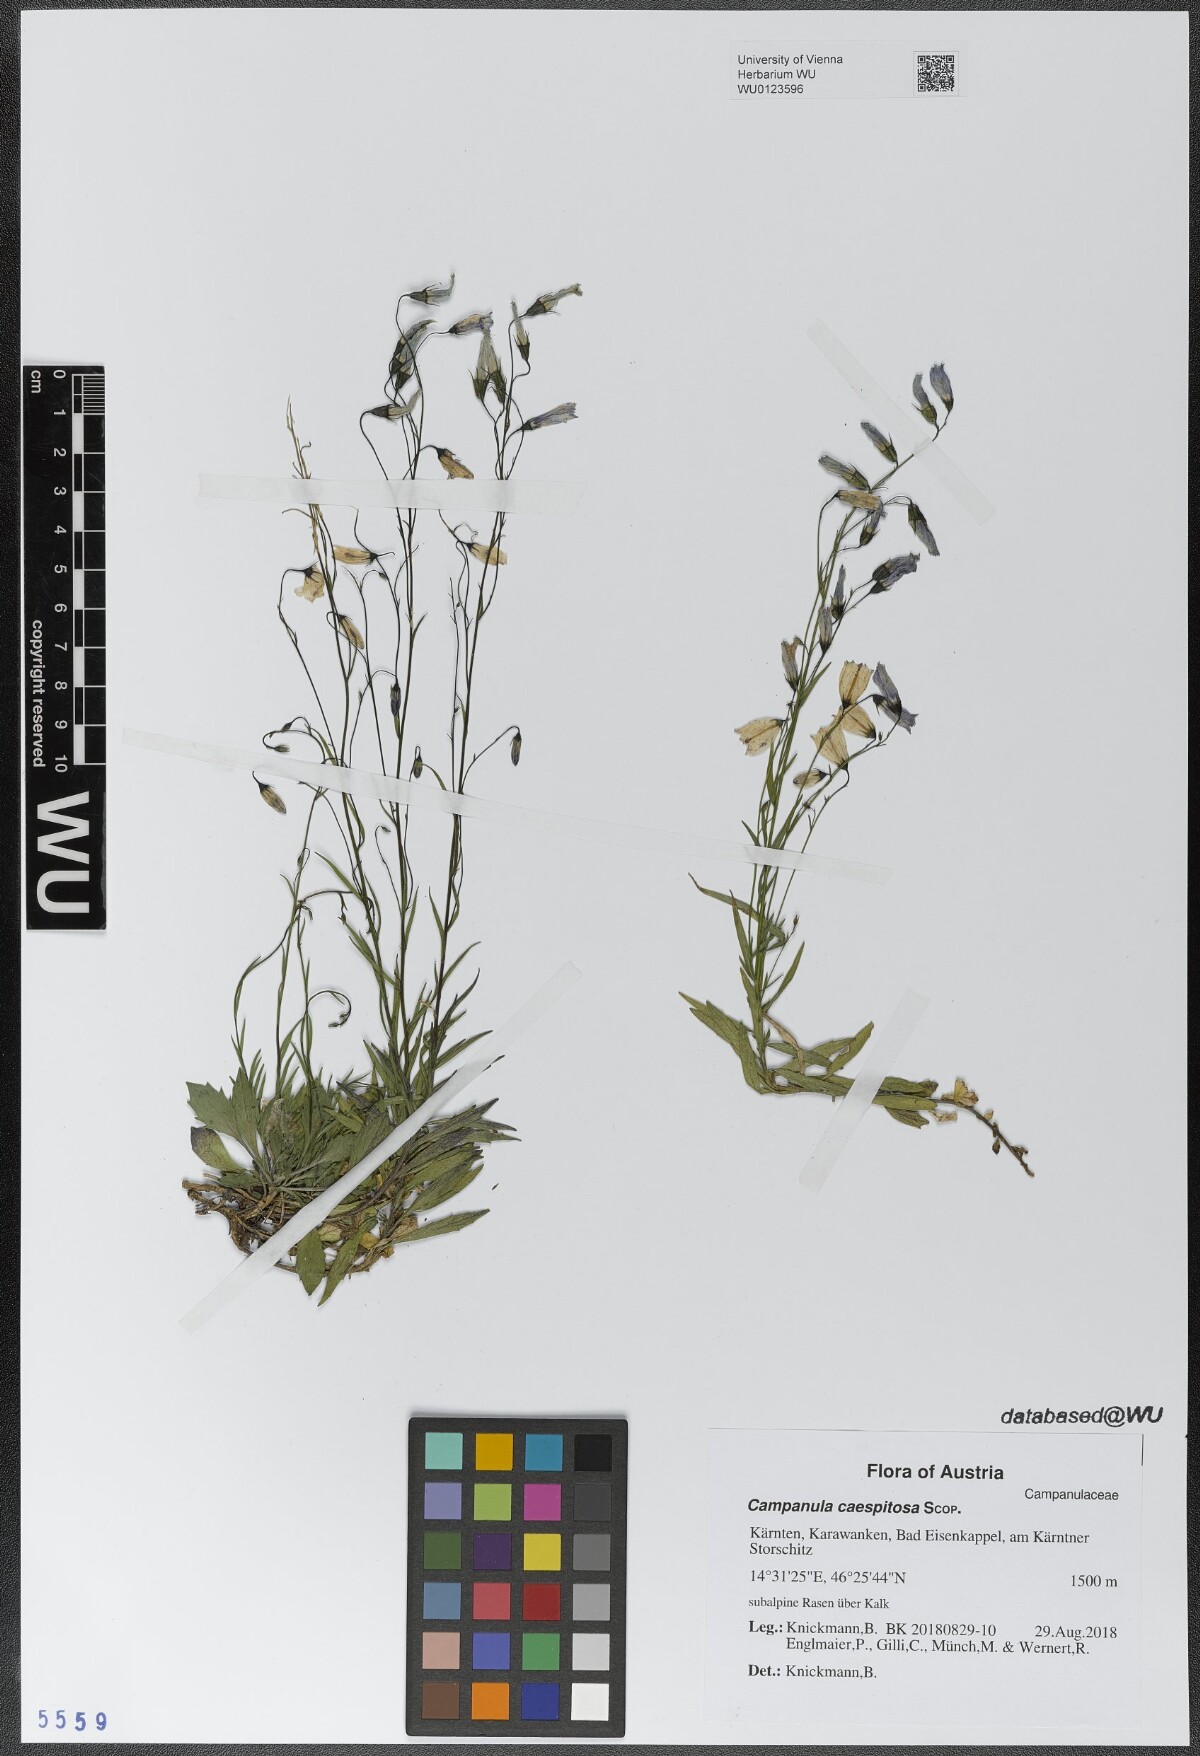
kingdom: Plantae
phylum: Tracheophyta
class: Magnoliopsida
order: Asterales
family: Campanulaceae
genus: Campanula
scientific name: Campanula caespitosa
